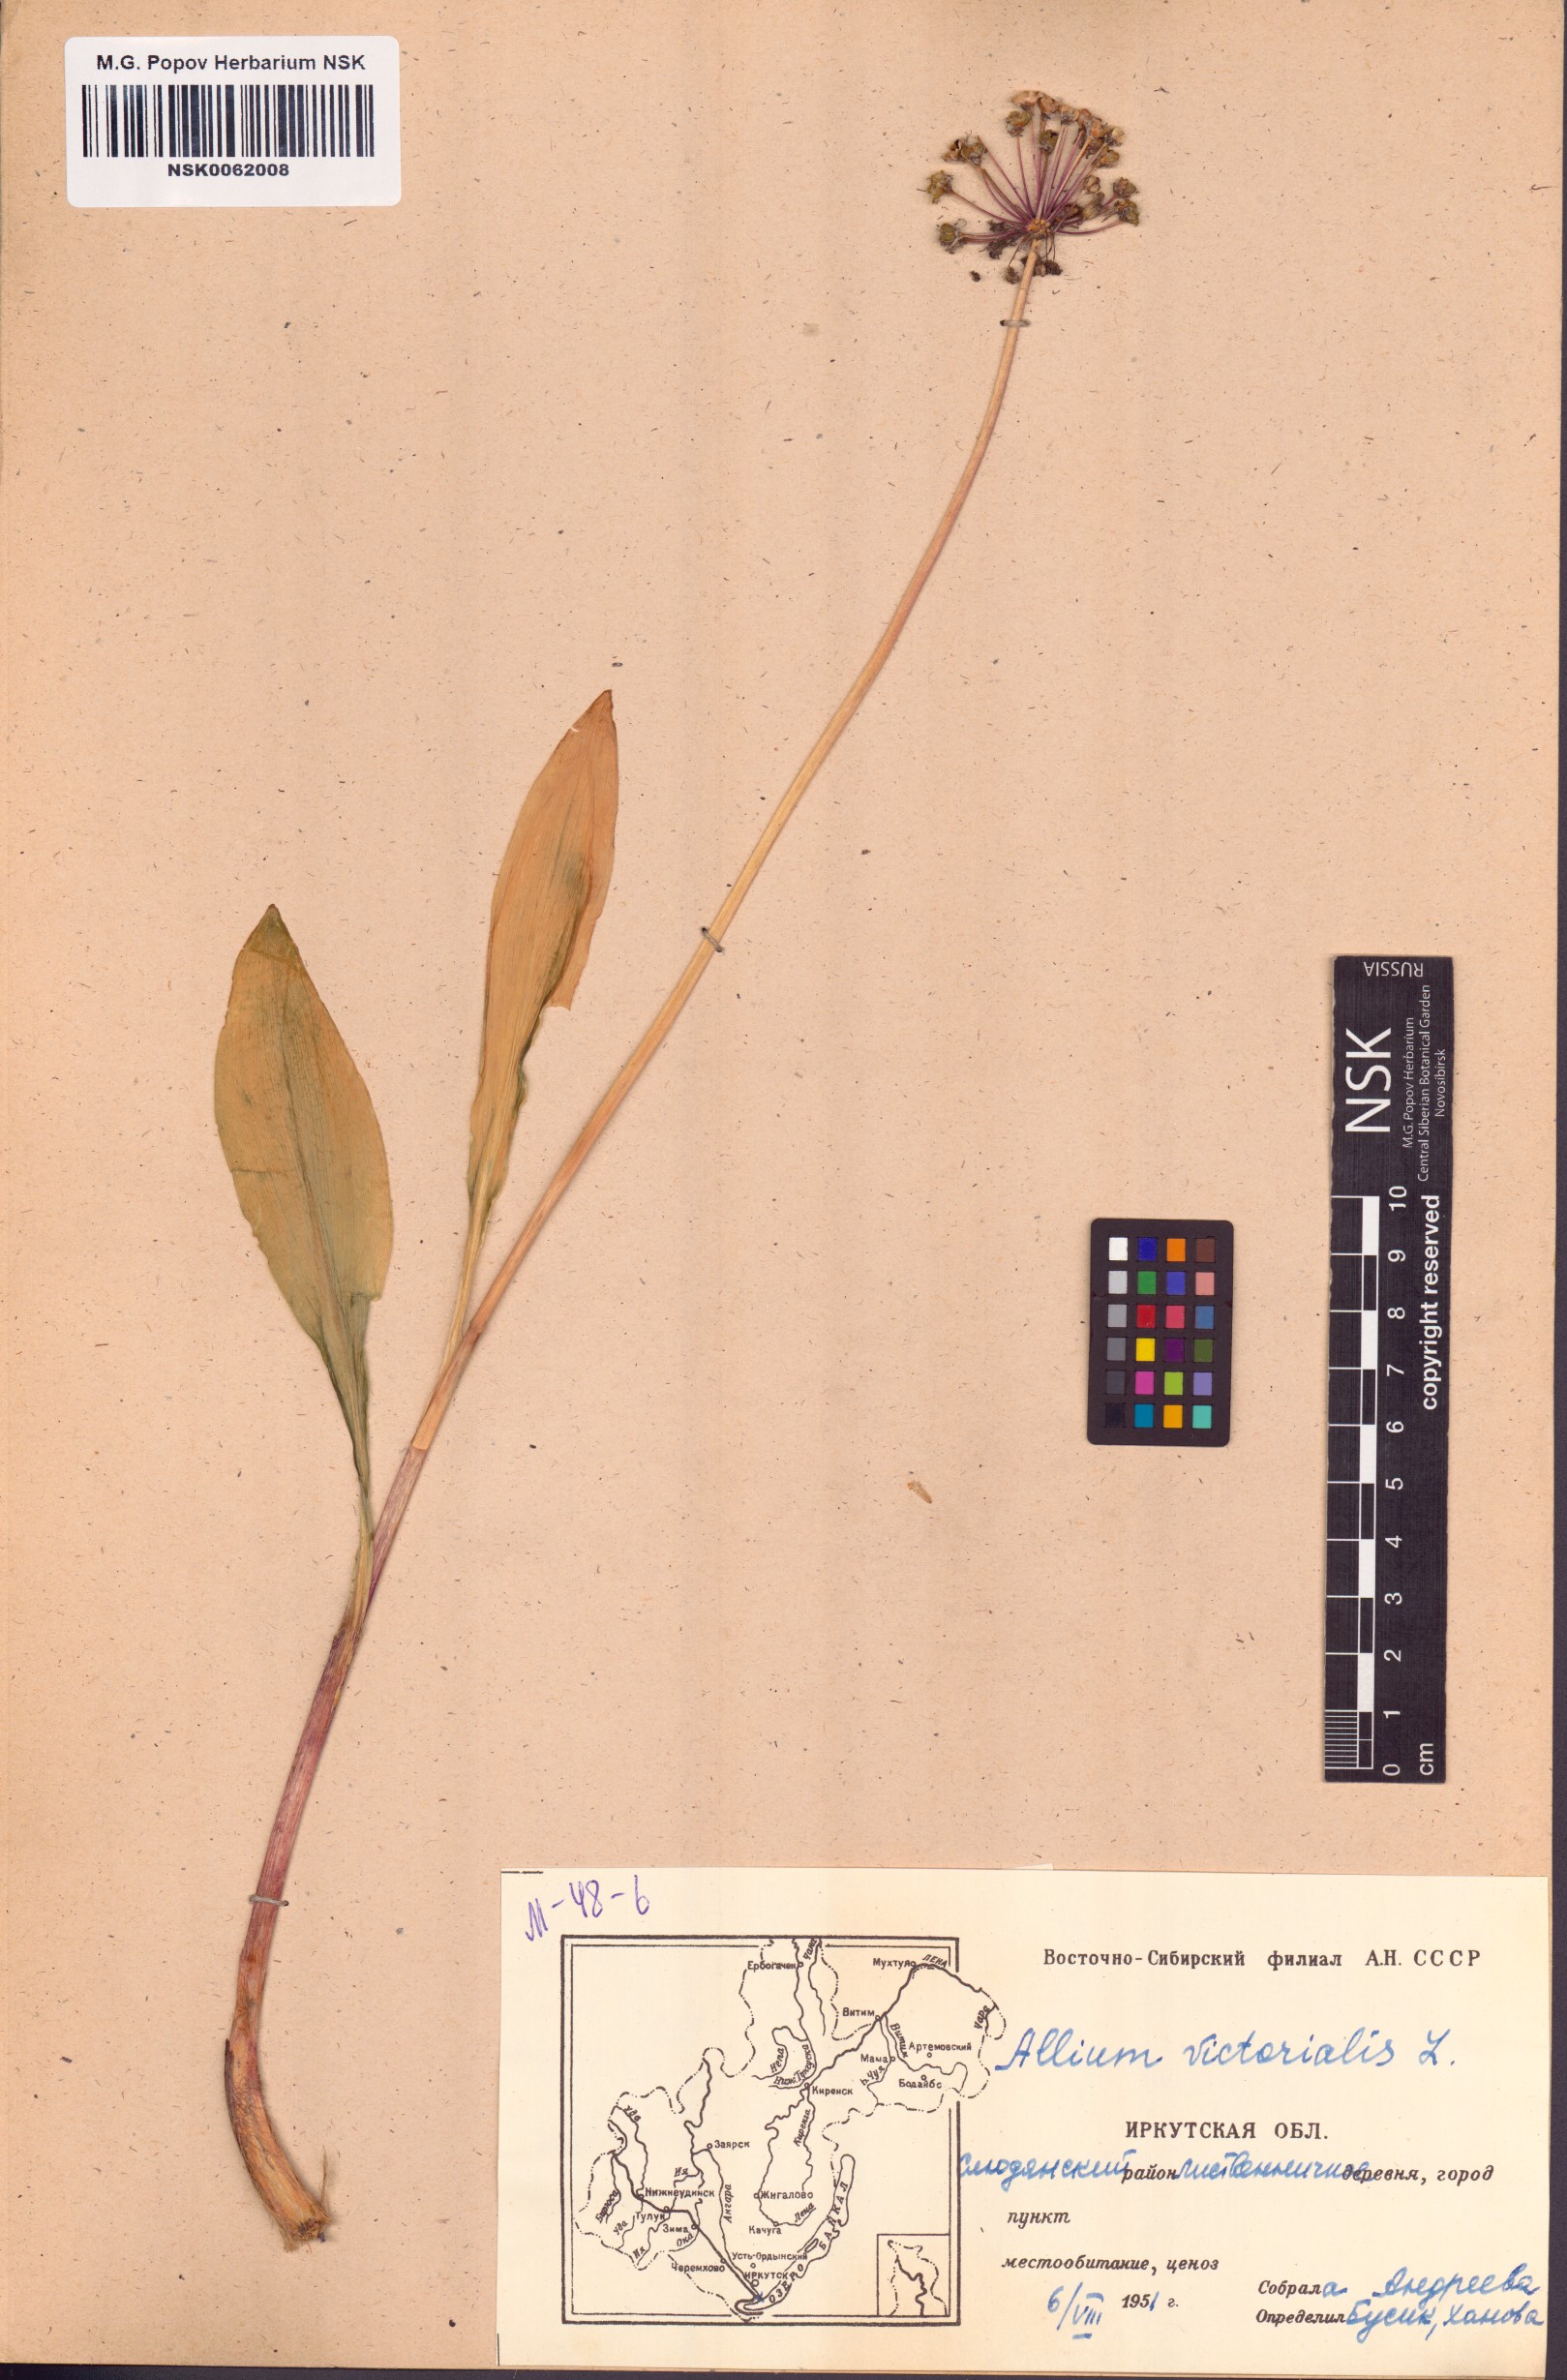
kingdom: Plantae
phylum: Tracheophyta
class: Liliopsida
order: Asparagales
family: Amaryllidaceae
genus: Allium
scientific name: Allium victorialis
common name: Alpine leek
